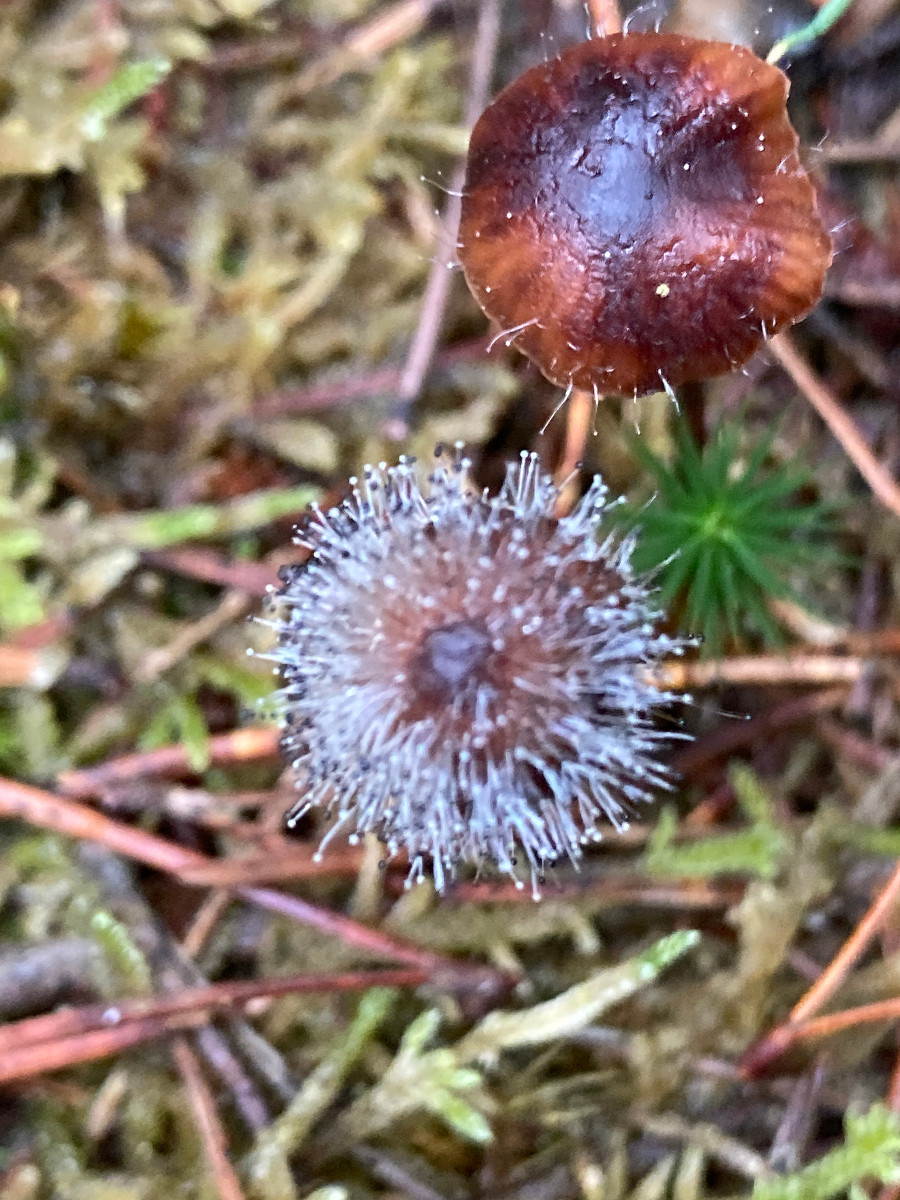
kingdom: Fungi
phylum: Mucoromycota
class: Mucoromycetes
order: Mucorales
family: Phycomycetaceae
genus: Spinellus
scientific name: Spinellus fusiger
